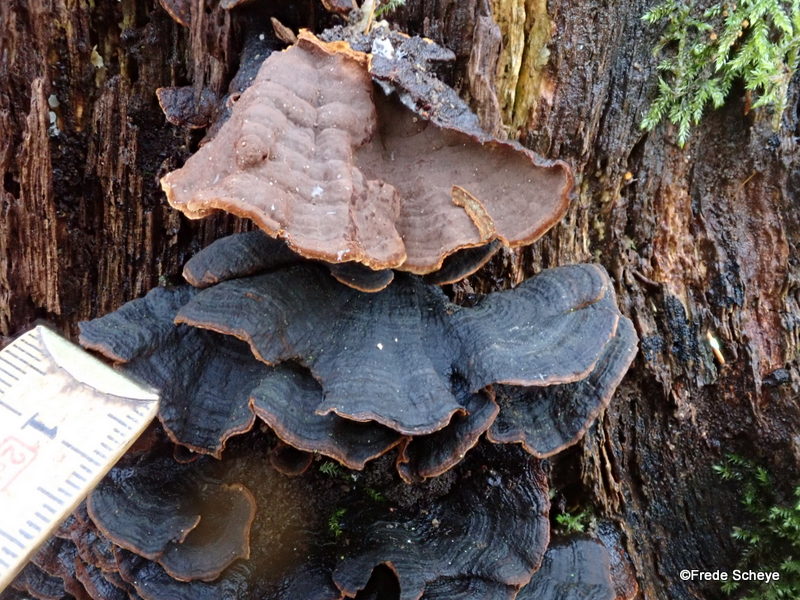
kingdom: Fungi
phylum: Basidiomycota
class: Agaricomycetes
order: Hymenochaetales
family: Hymenochaetaceae
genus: Hymenochaete
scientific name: Hymenochaete rubiginosa
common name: stiv ruslædersvamp
